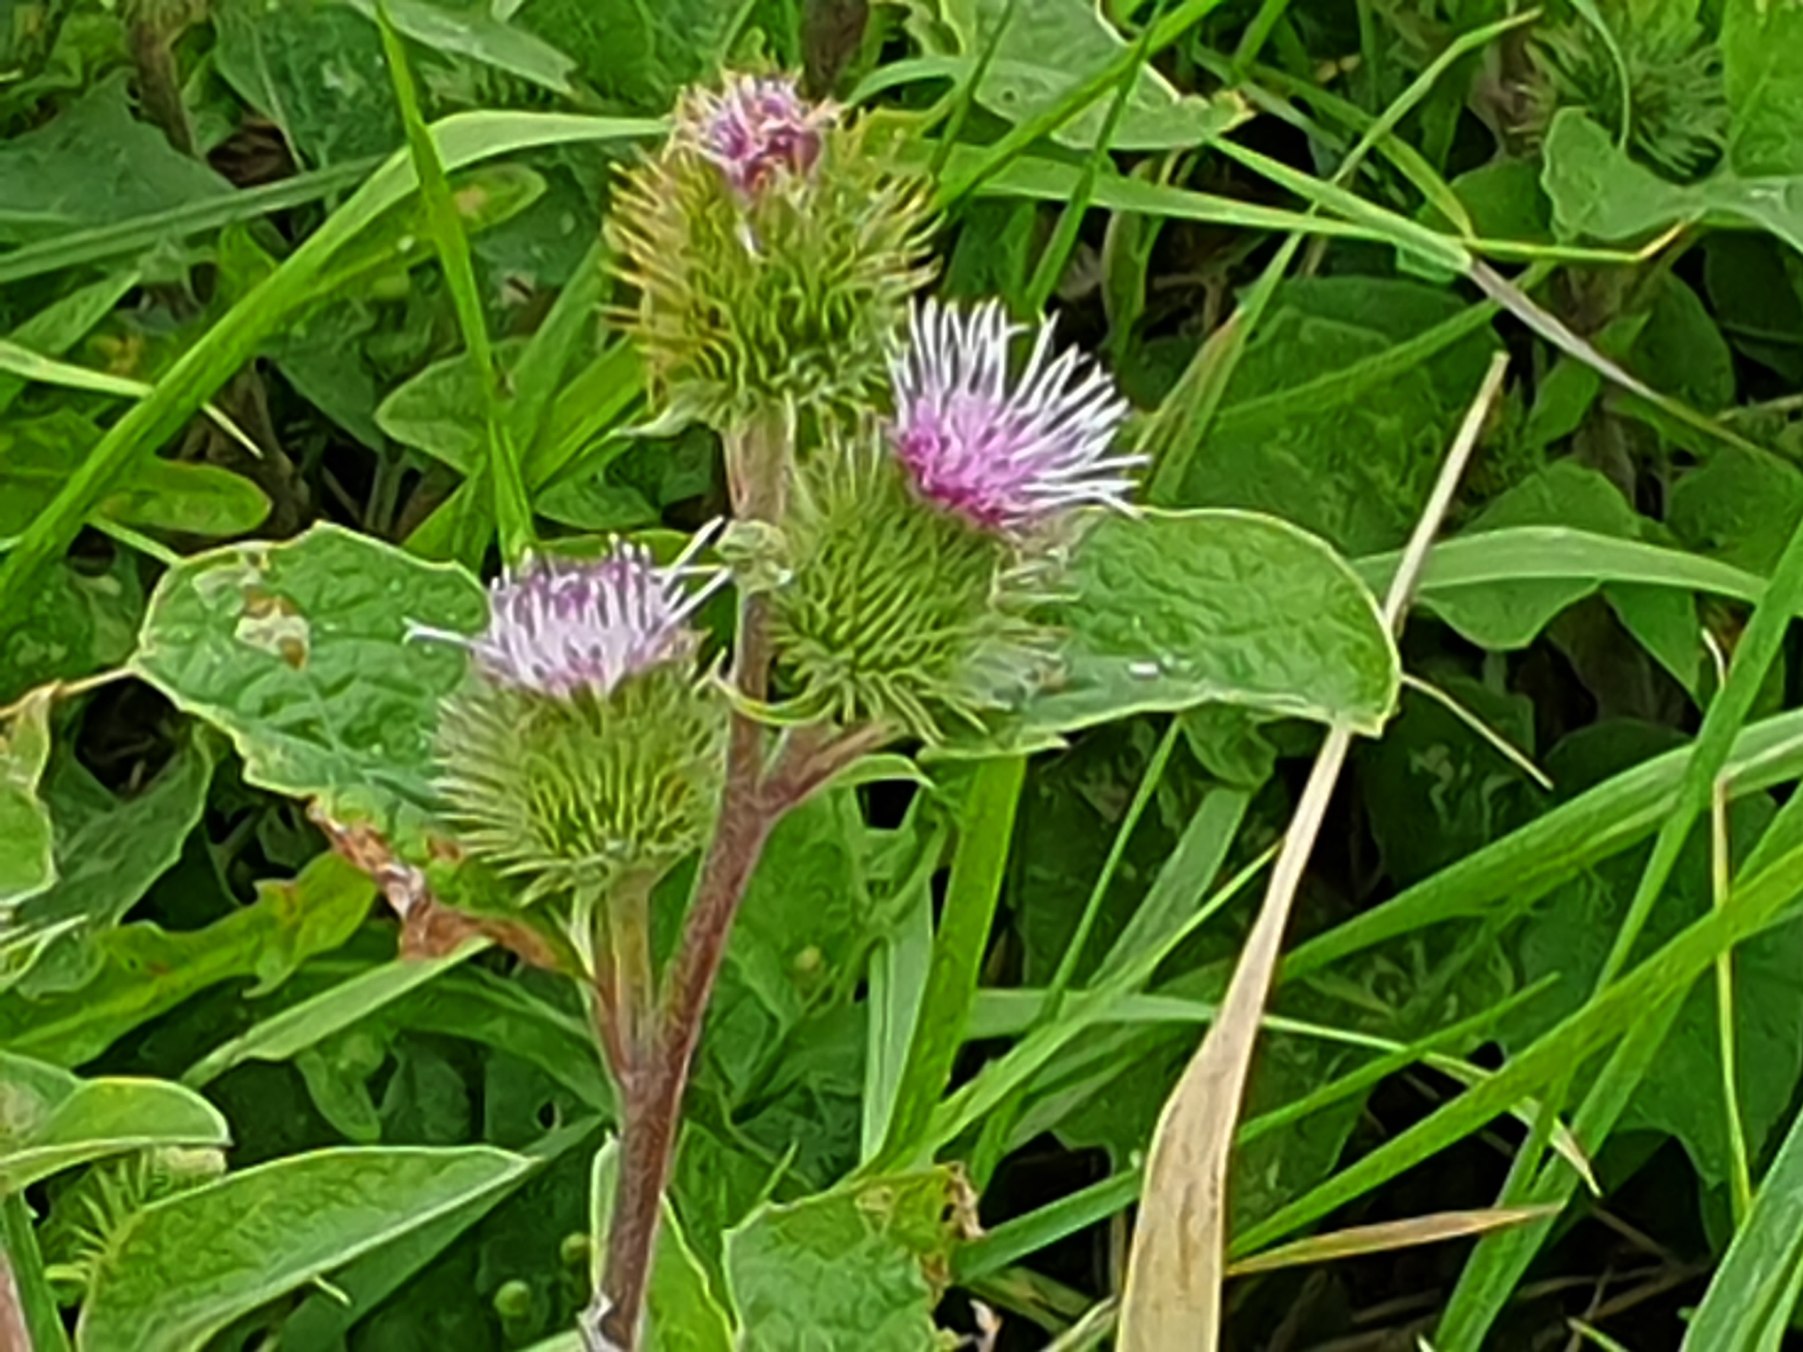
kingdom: Plantae
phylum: Tracheophyta
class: Magnoliopsida
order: Asterales
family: Asteraceae
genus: Arctium
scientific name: Arctium nemorosum
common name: Skov-burre
